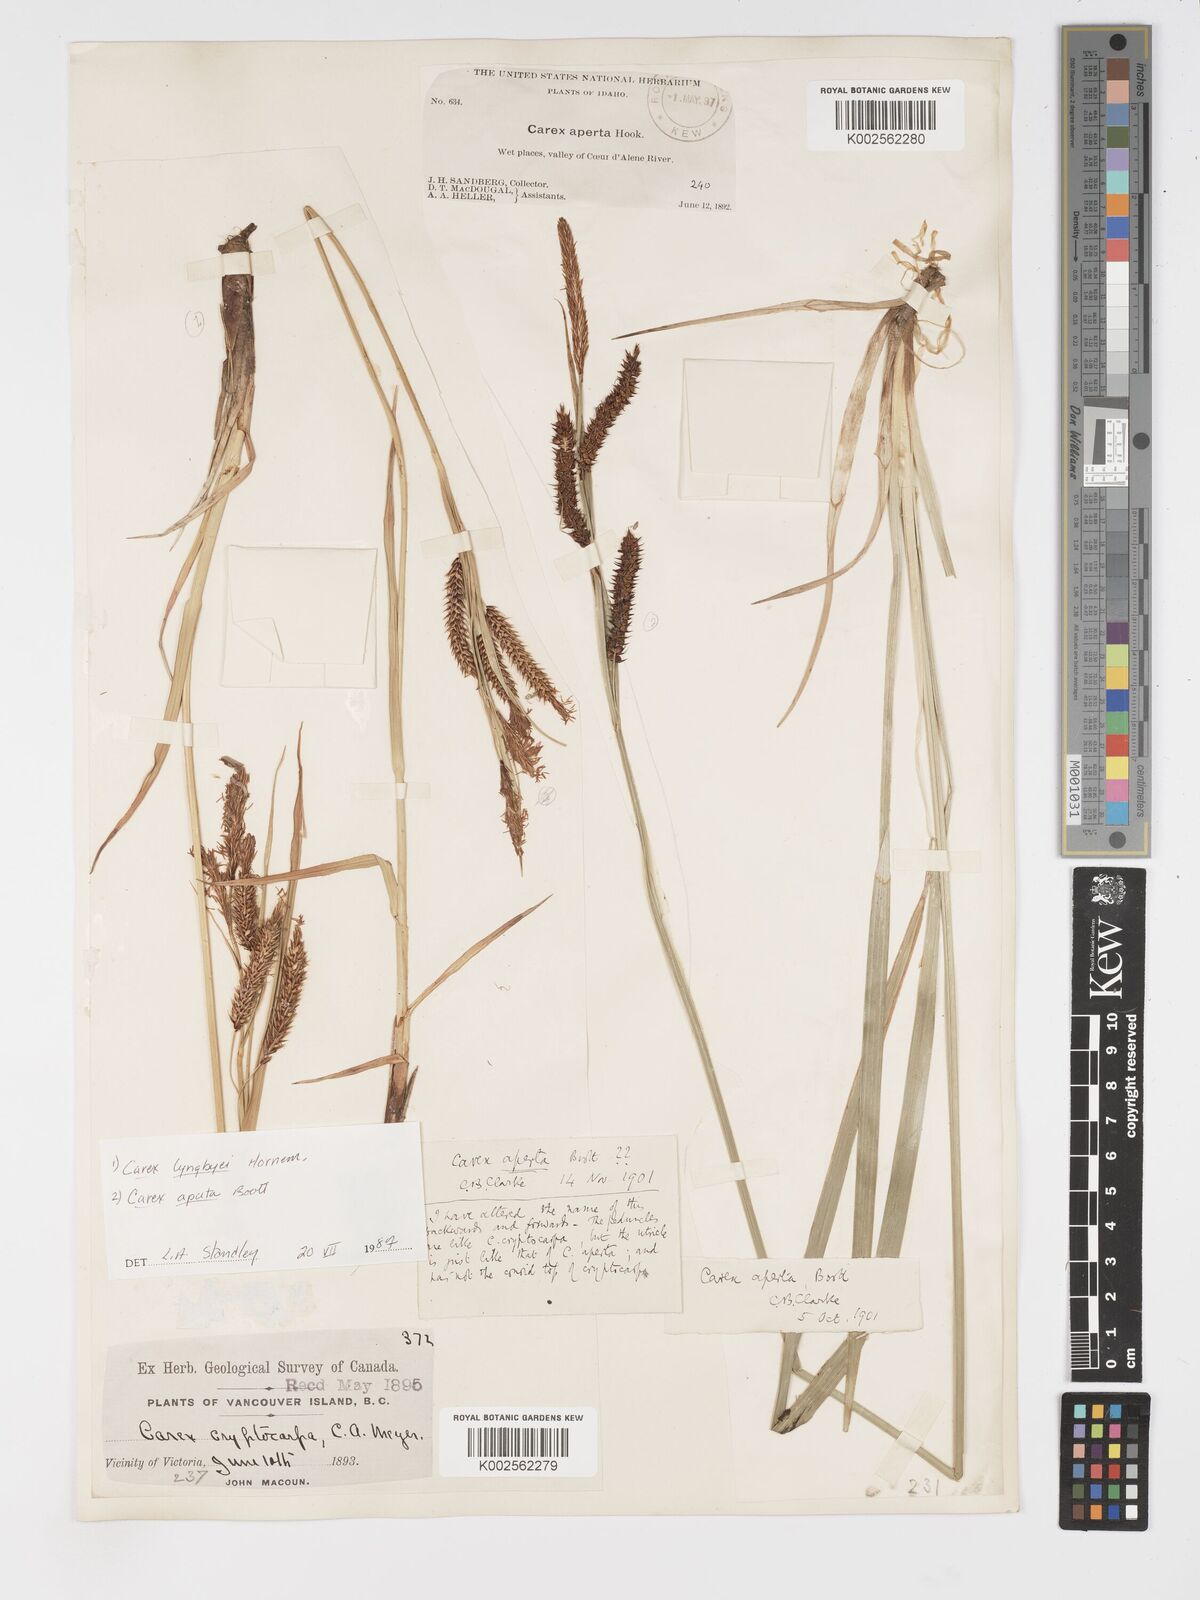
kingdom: Plantae
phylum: Tracheophyta
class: Liliopsida
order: Poales
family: Cyperaceae
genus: Carex
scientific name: Carex aperta
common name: Columbia sedge
